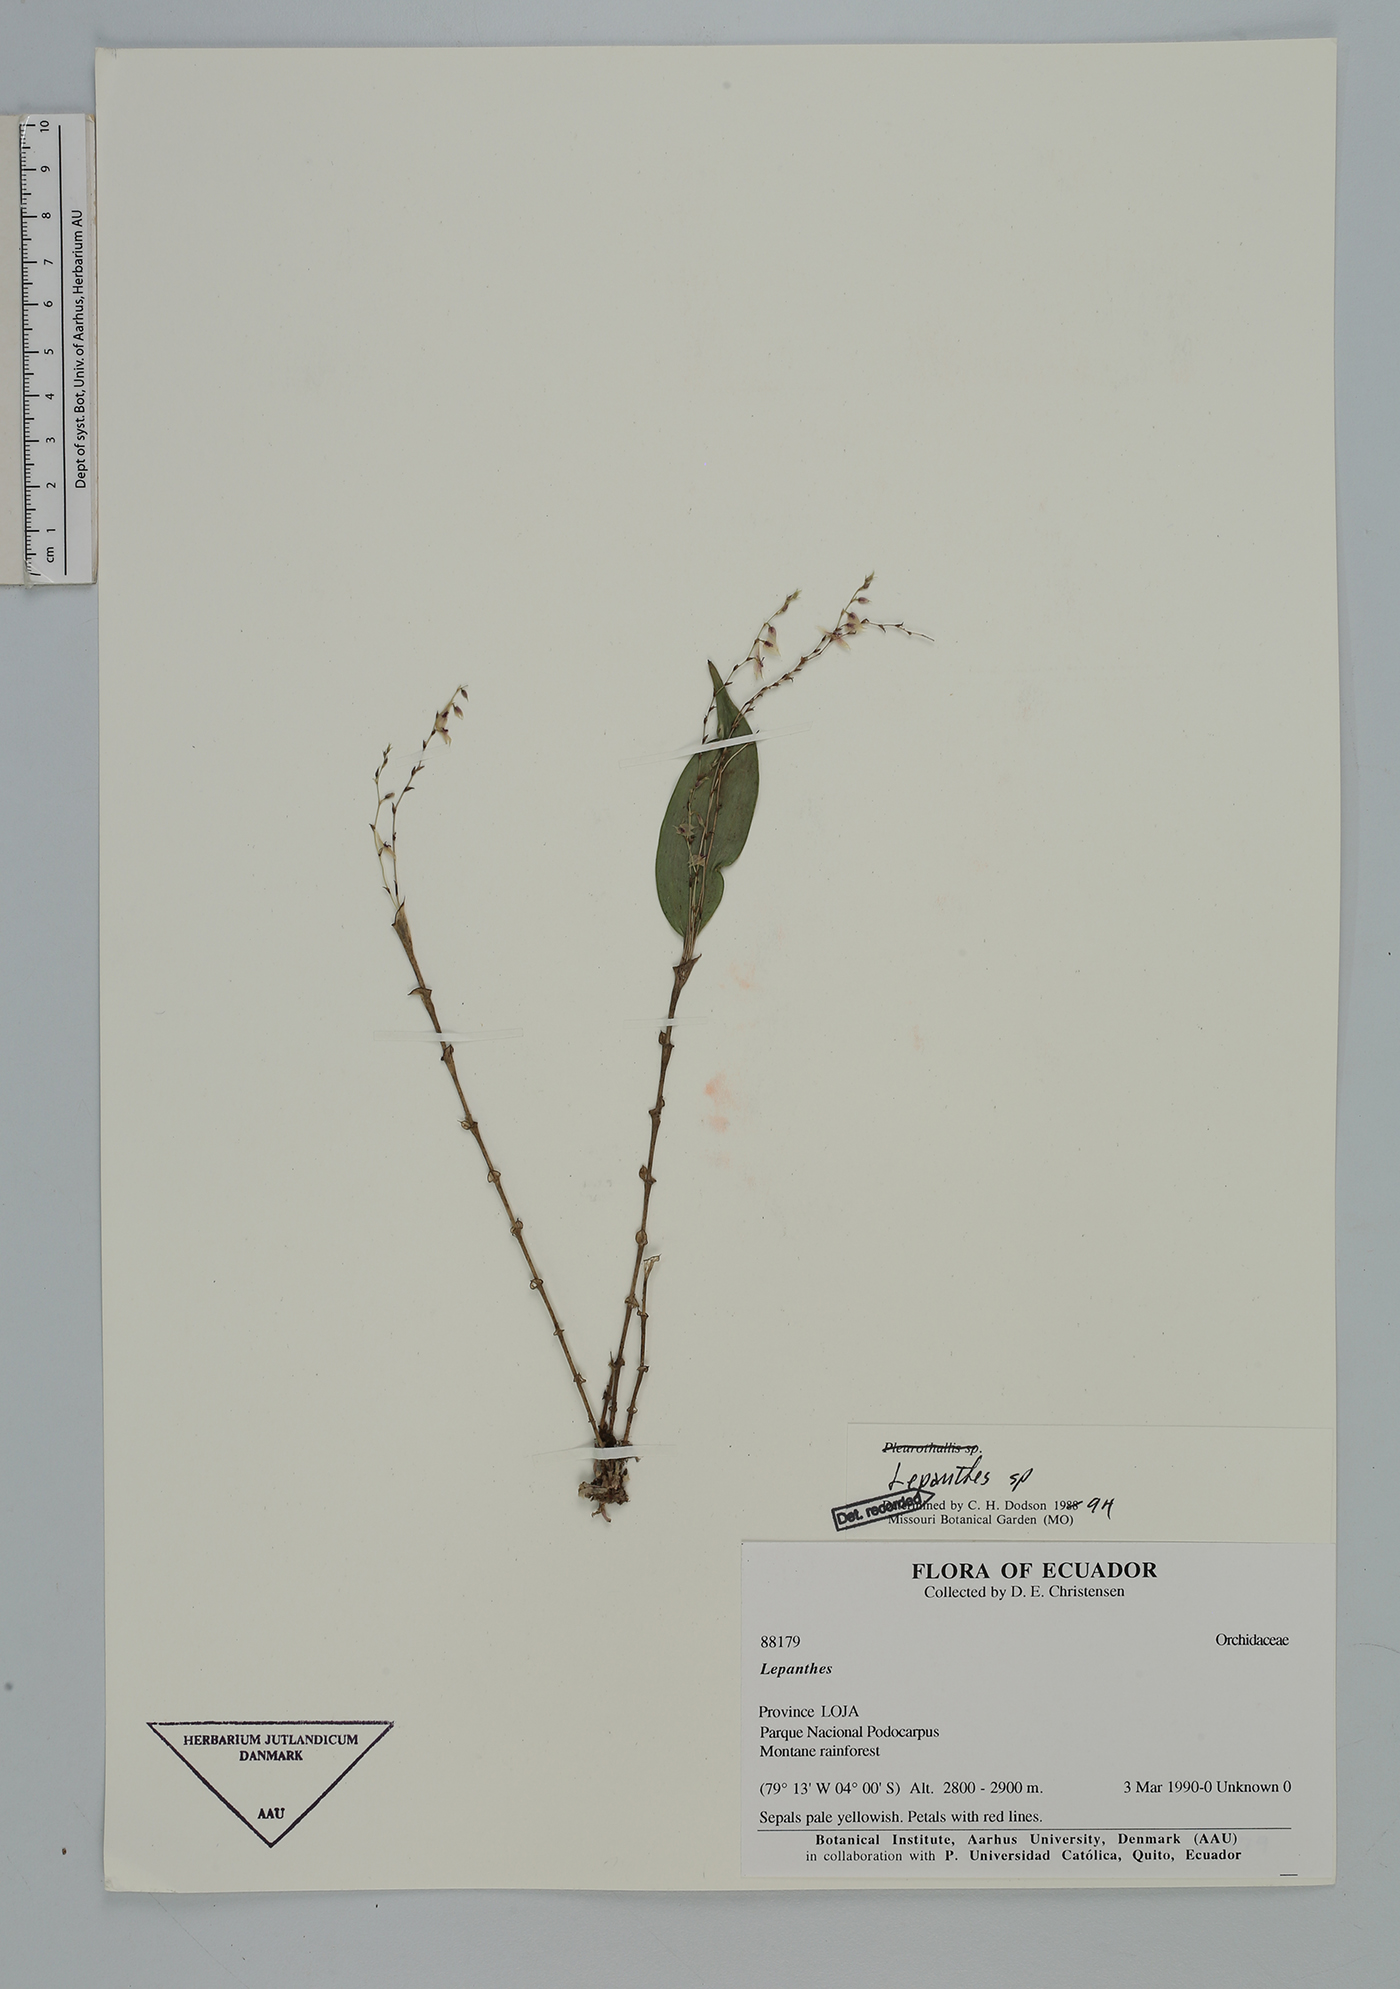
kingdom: Plantae
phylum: Tracheophyta
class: Liliopsida
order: Asparagales
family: Orchidaceae
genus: Lepanthes
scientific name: Lepanthes
